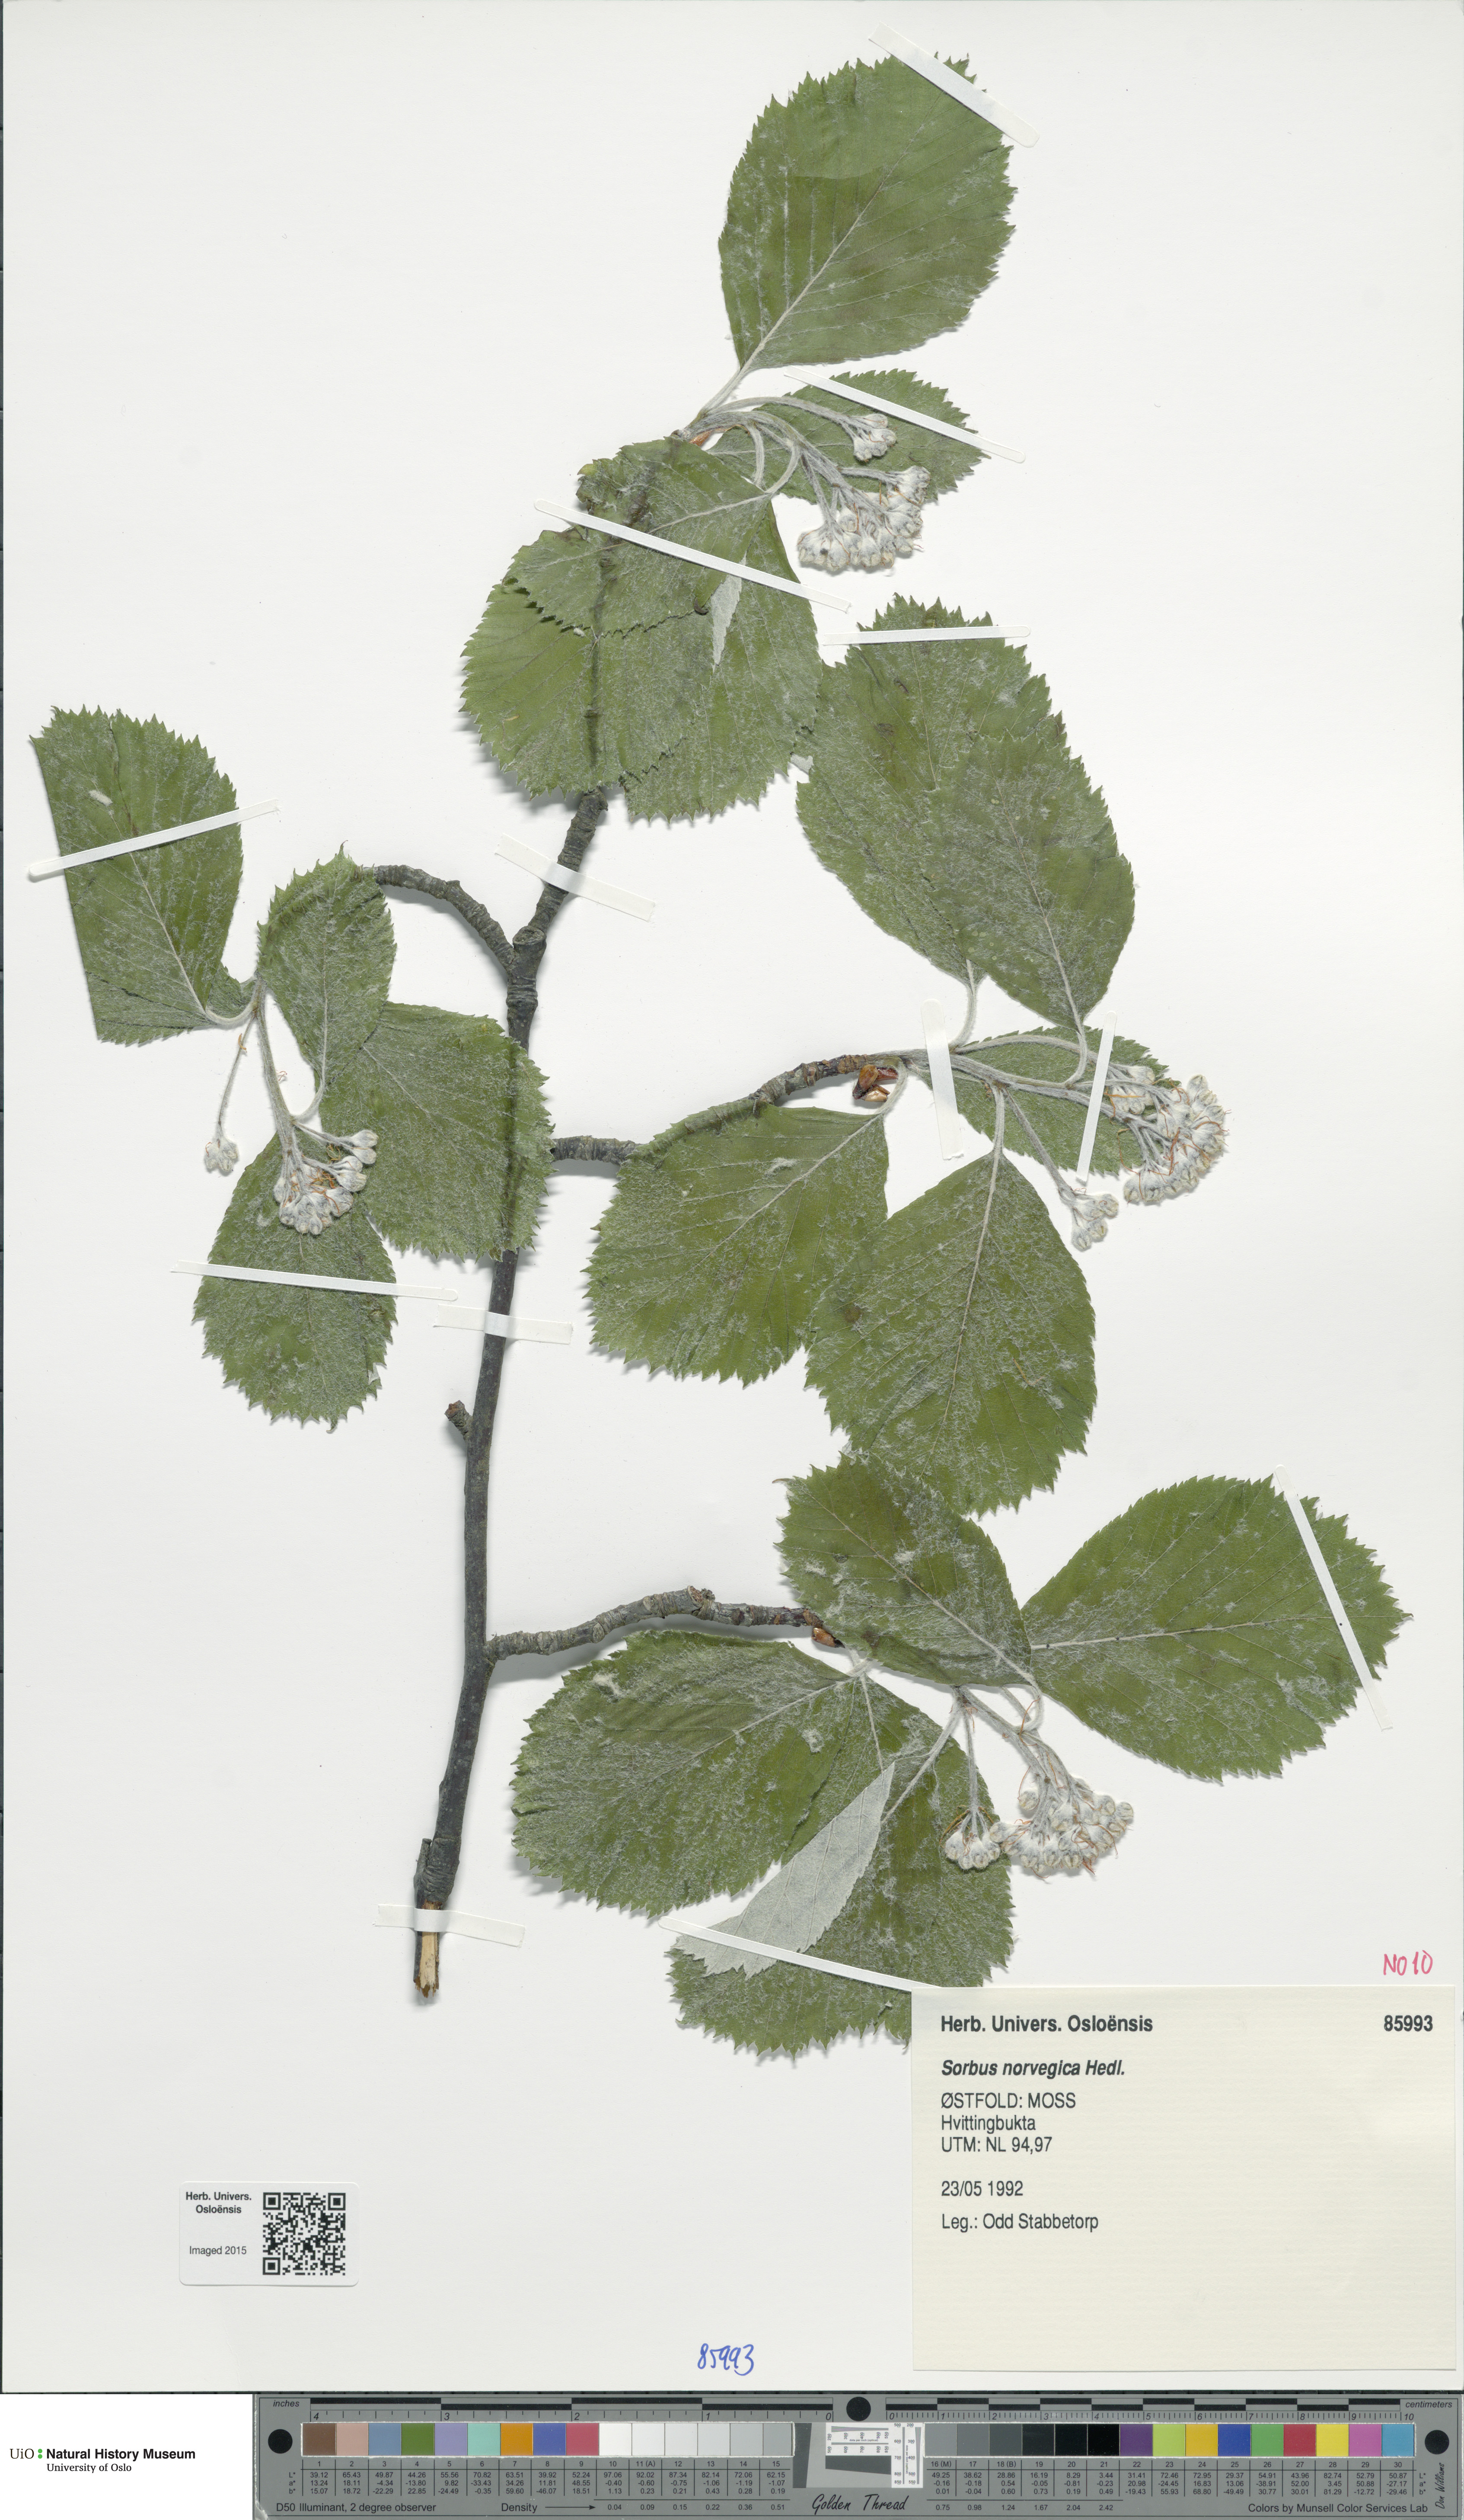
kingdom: Plantae
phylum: Tracheophyta
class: Magnoliopsida
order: Rosales
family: Rosaceae
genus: Aria
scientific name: Aria obtusifolia
